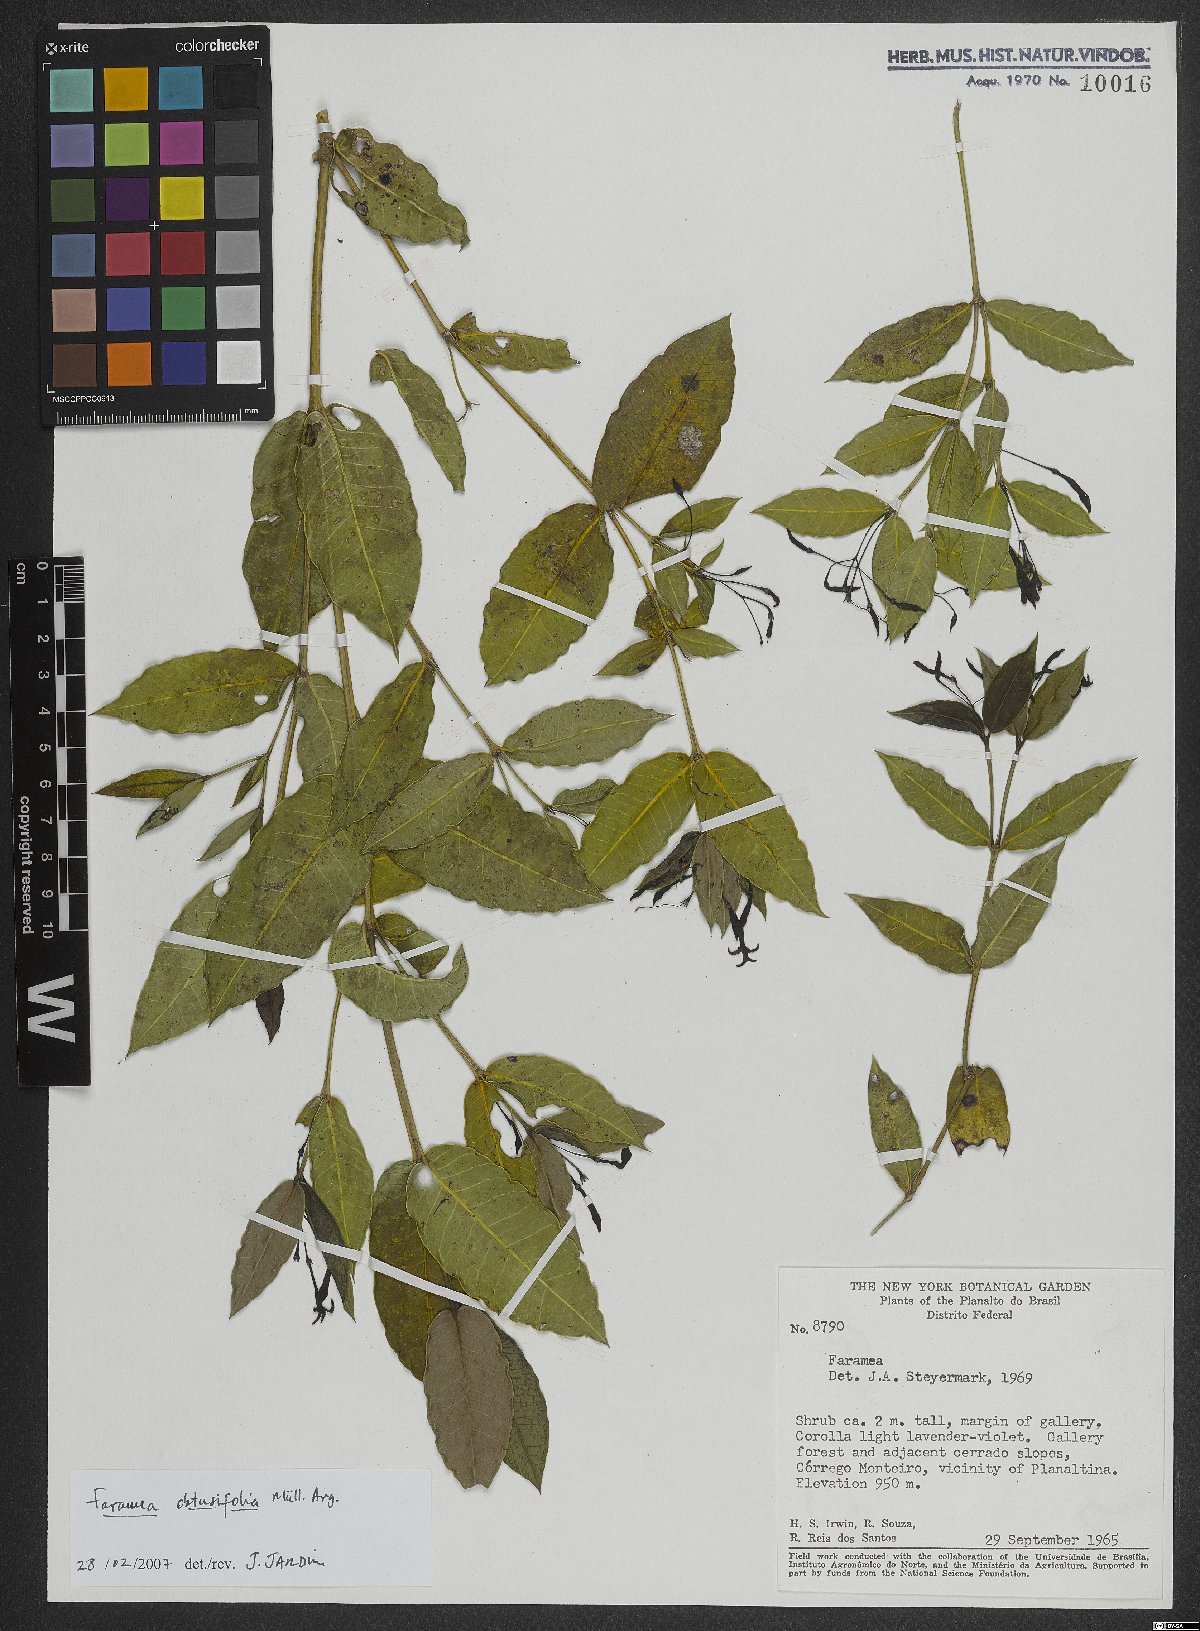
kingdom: Plantae
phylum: Tracheophyta
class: Magnoliopsida
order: Gentianales
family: Rubiaceae
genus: Faramea
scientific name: Faramea obtusifolia
